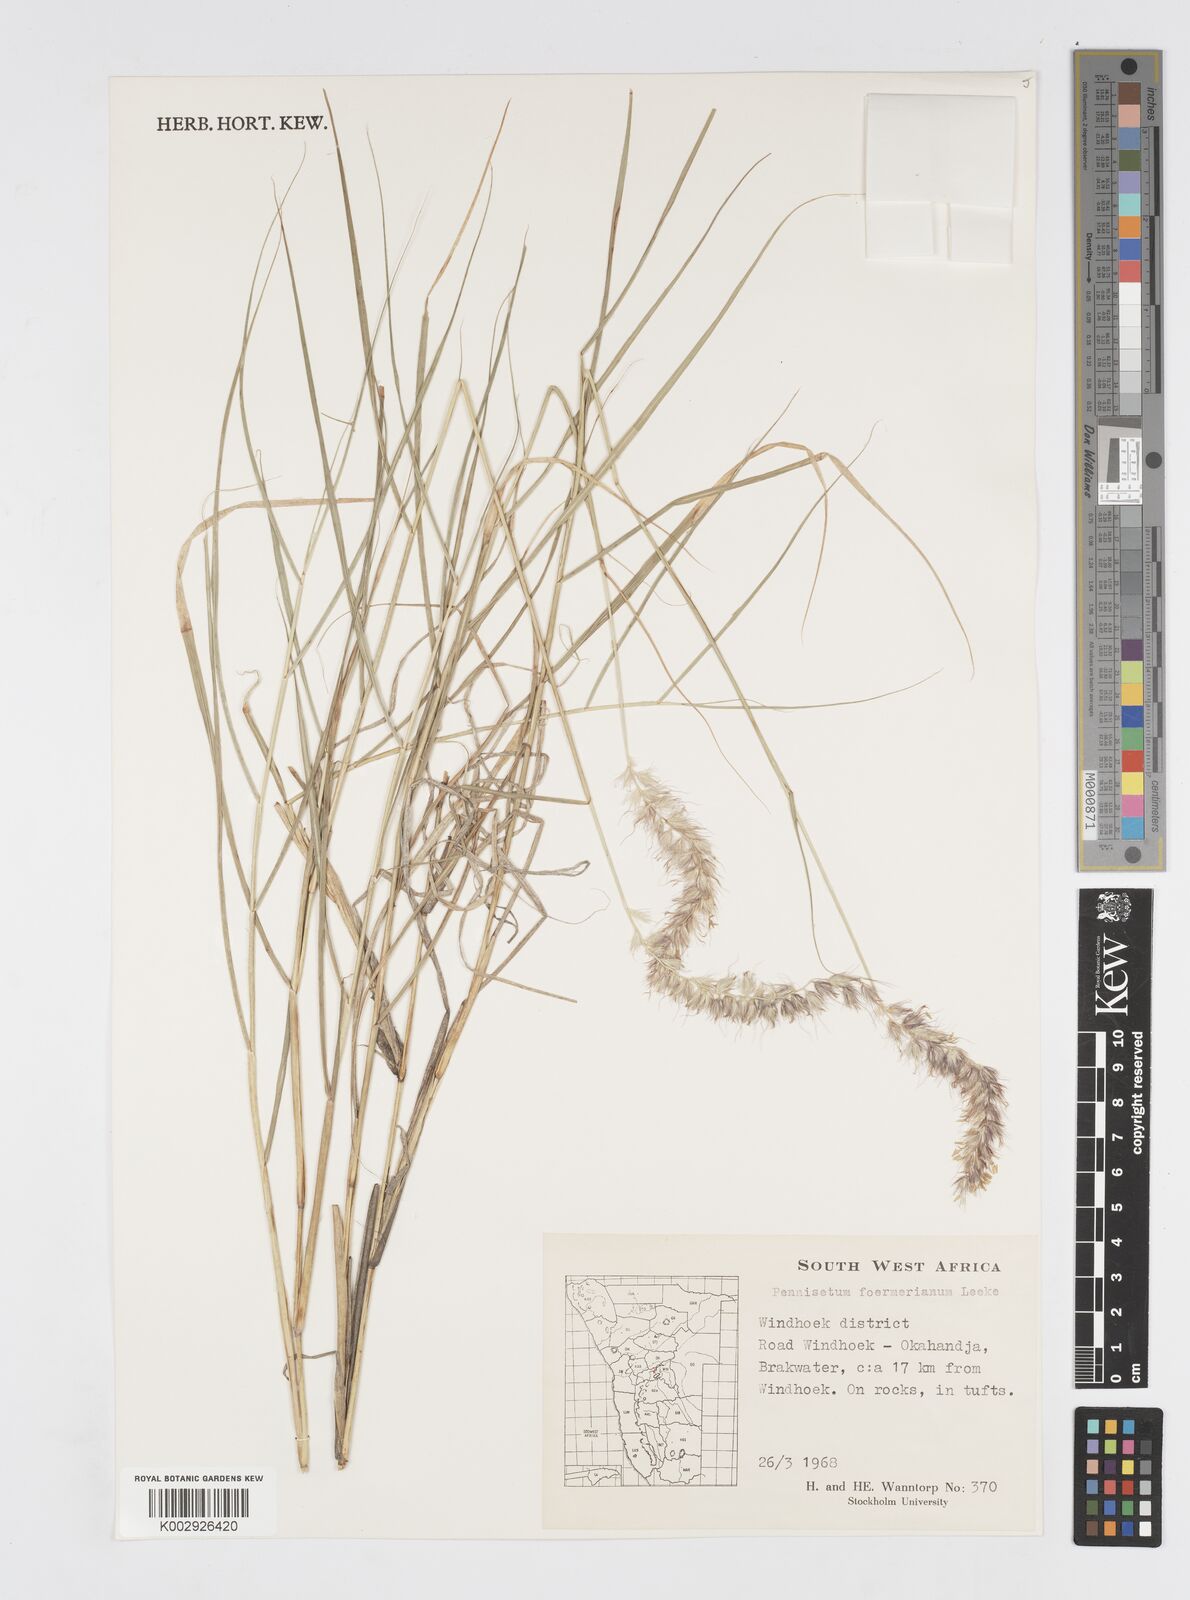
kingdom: Plantae
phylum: Tracheophyta
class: Liliopsida
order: Poales
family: Poaceae
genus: Cenchrus
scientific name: Cenchrus foermerianus
